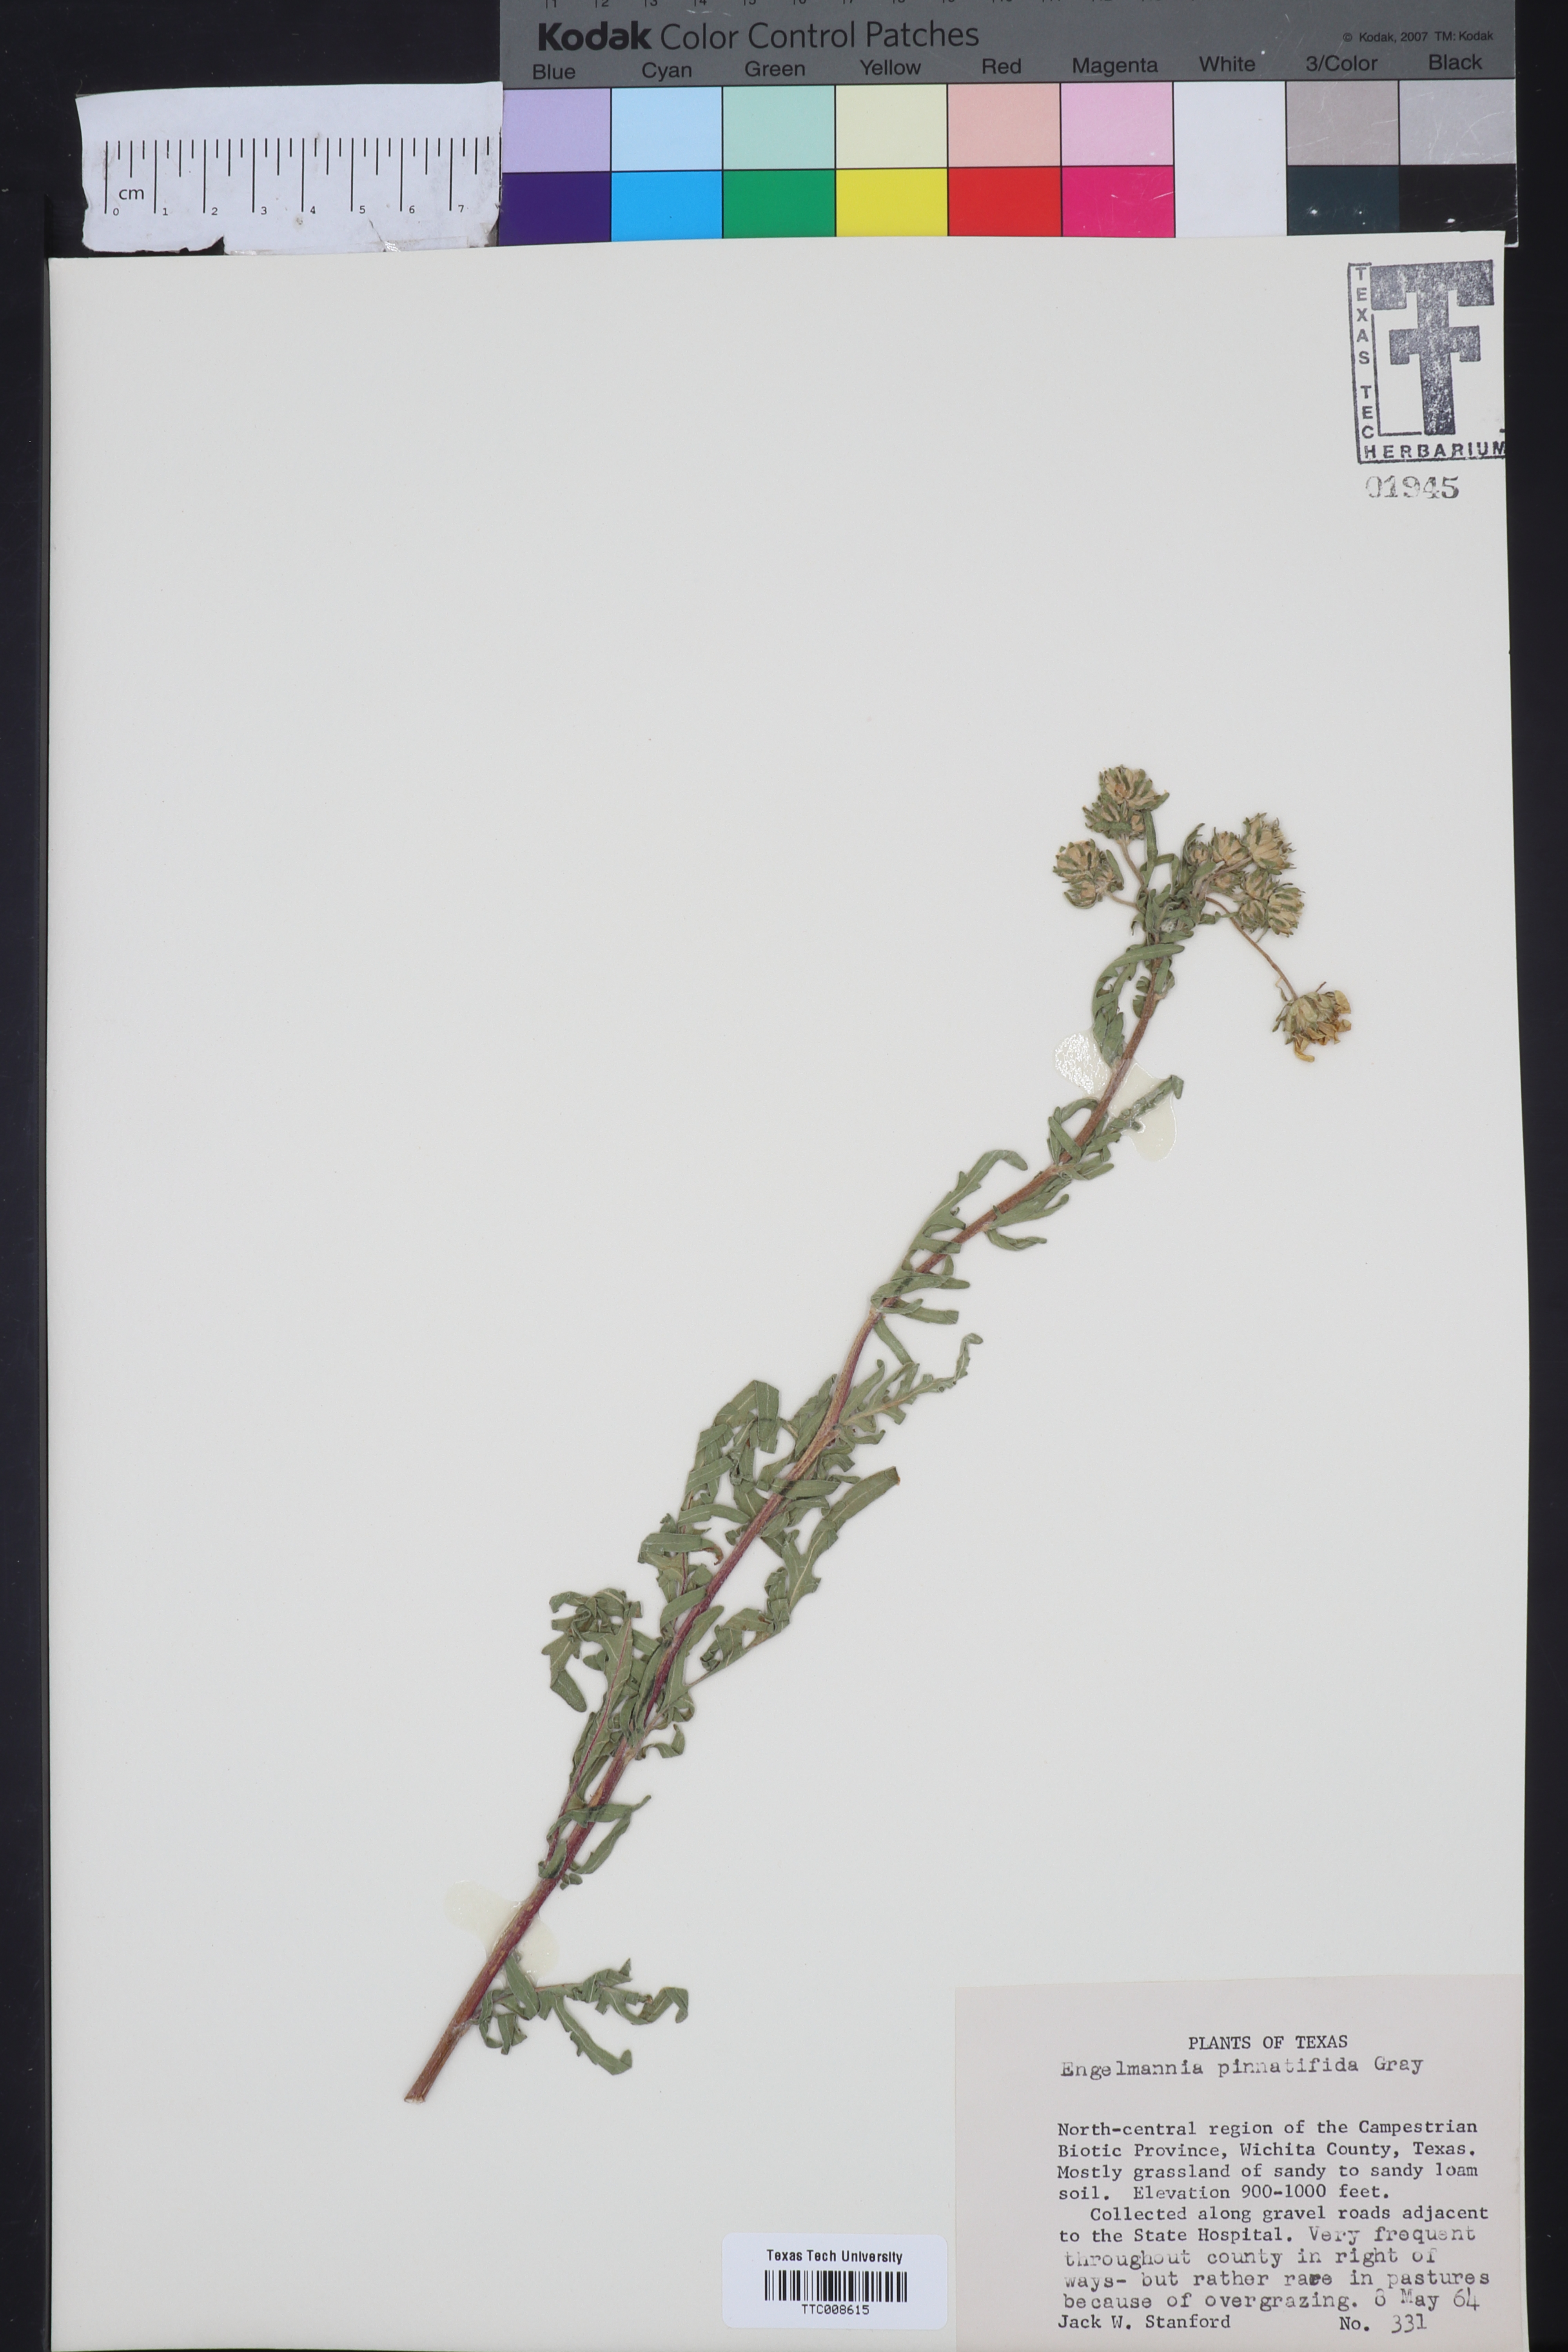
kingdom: Plantae
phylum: Tracheophyta
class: Magnoliopsida
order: Asterales
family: Asteraceae
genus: Engelmannia
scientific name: Engelmannia peristenia
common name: Engelmann's daisy
